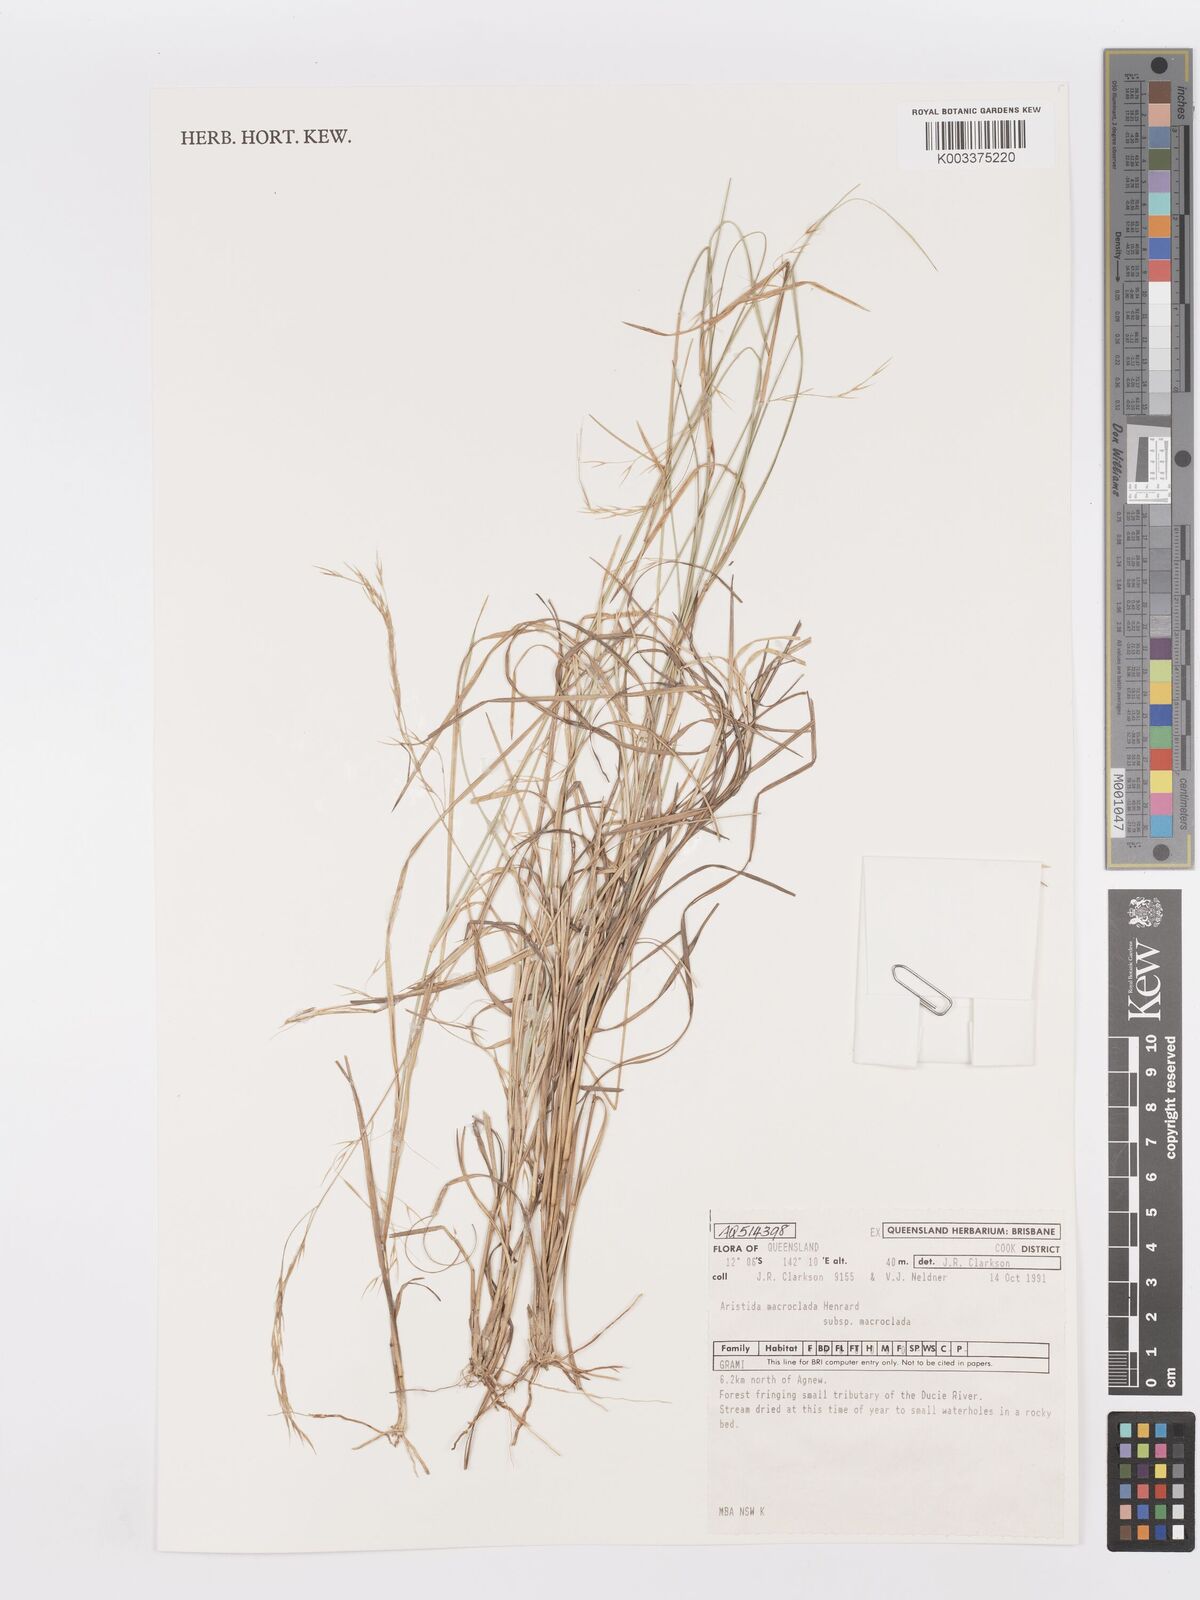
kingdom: Plantae
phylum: Tracheophyta
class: Liliopsida
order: Poales
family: Poaceae
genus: Aristida
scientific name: Aristida macroclada
